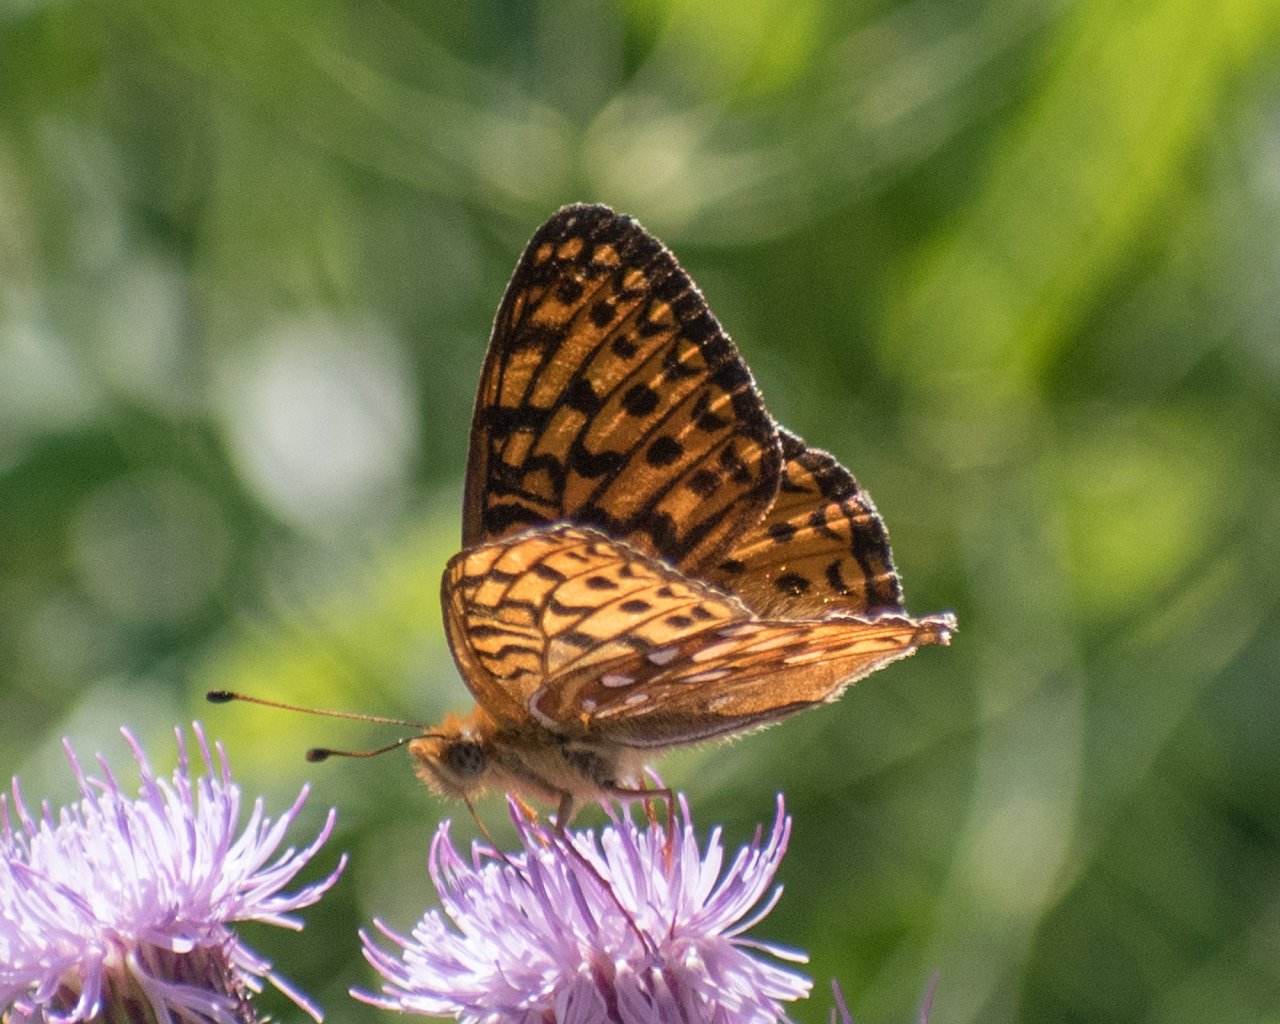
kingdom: Animalia
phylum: Arthropoda
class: Insecta
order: Lepidoptera
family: Nymphalidae
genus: Speyeria
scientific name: Speyeria atlantis
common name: Atlantis Fritillary
